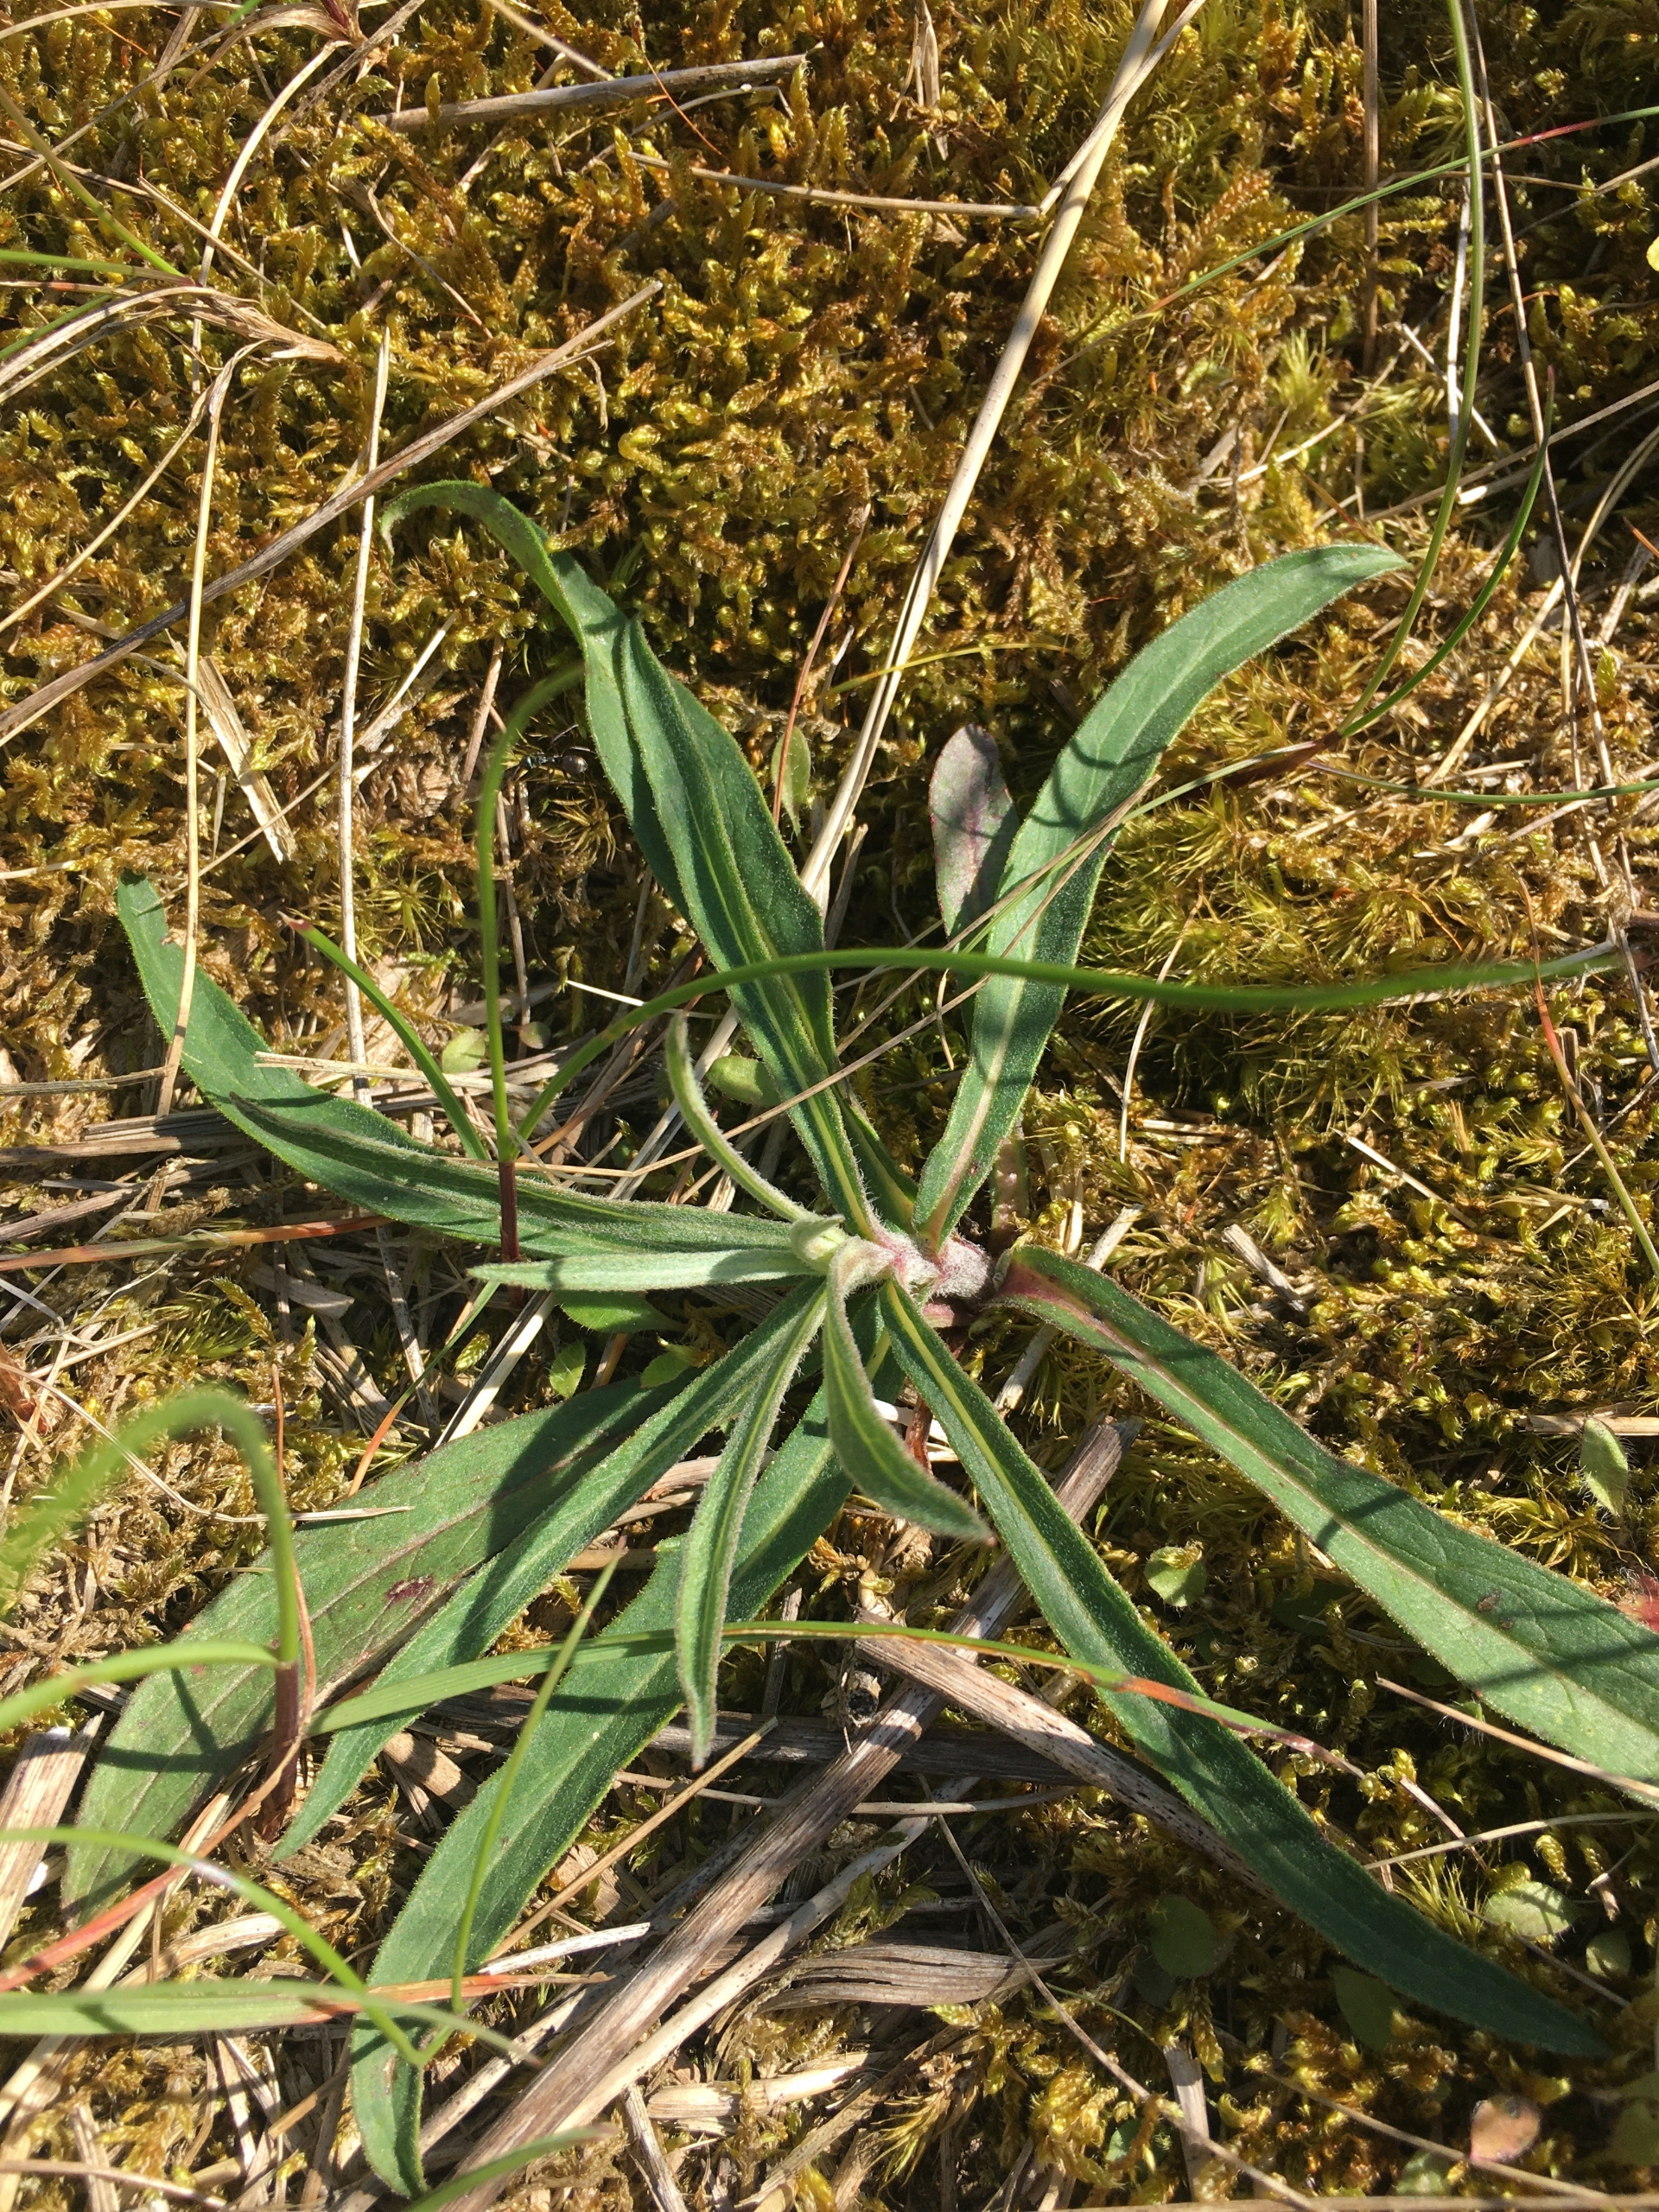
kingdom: Plantae
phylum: Tracheophyta
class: Magnoliopsida
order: Asterales
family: Asteraceae
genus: Hieracium
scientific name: Hieracium umbellatum
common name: Smalbladet høgeurt
